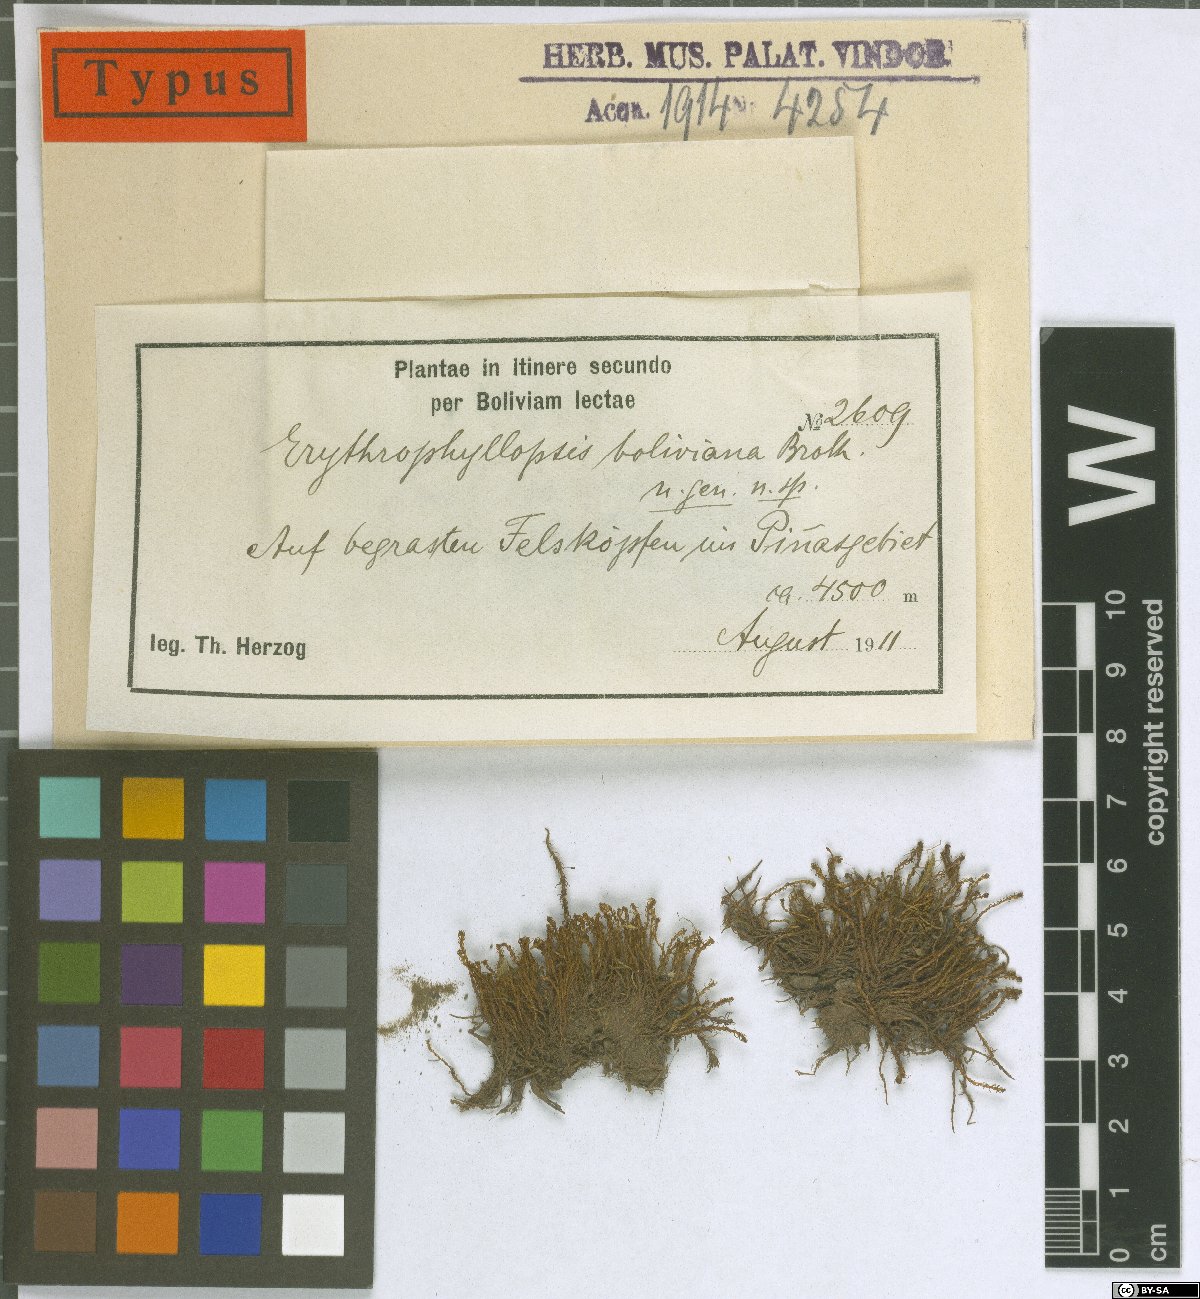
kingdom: Plantae
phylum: Bryophyta
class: Bryopsida
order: Pottiales
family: Pottiaceae
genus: Erythrophyllopsis
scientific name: Erythrophyllopsis andina
